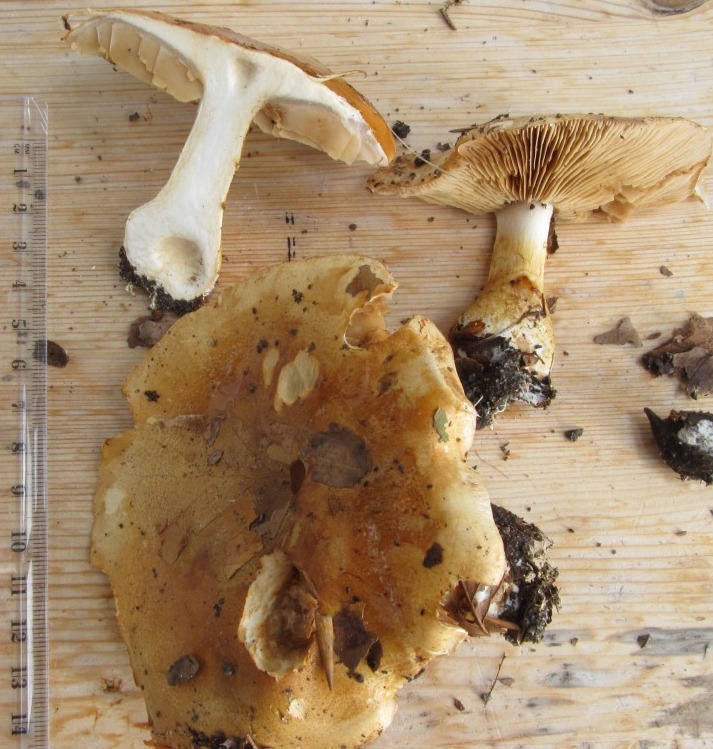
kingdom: Fungi
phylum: Basidiomycota
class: Agaricomycetes
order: Agaricales
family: Cortinariaceae
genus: Phlegmacium
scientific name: Phlegmacium cliduchus
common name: majs-slørhat
